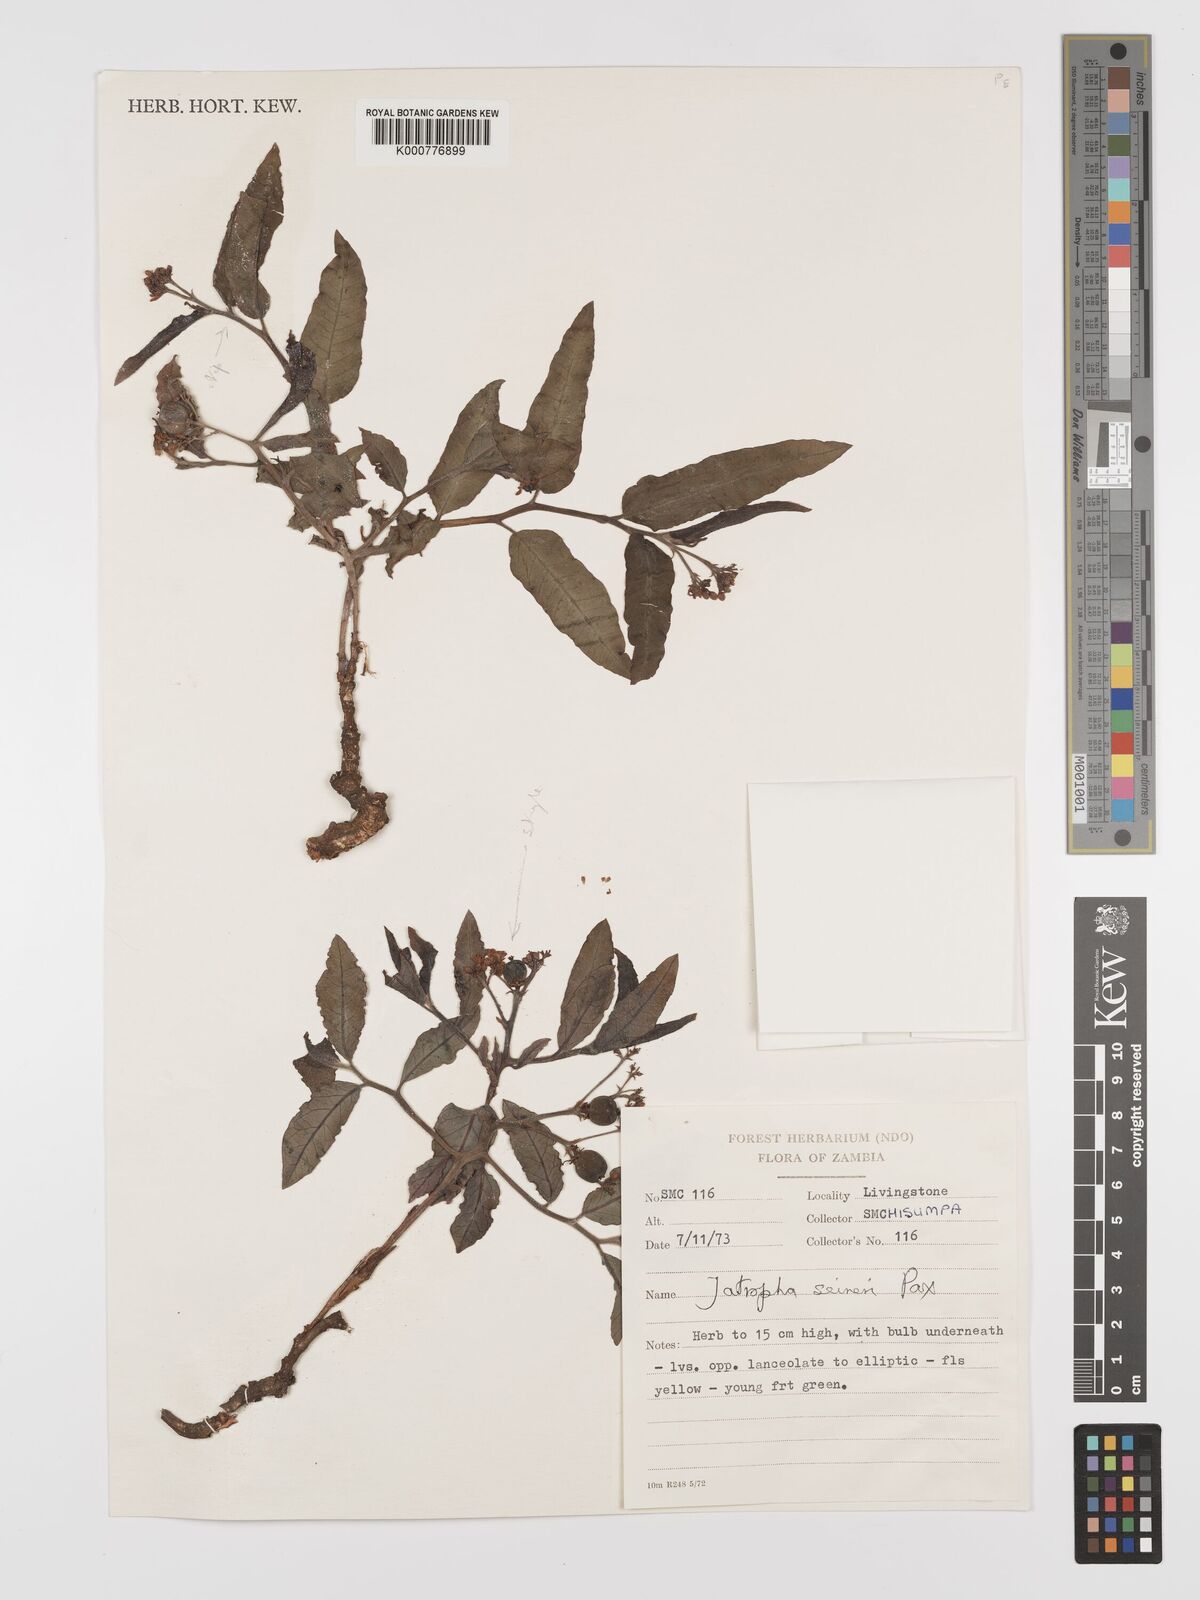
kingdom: Plantae
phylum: Tracheophyta
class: Magnoliopsida
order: Malpighiales
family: Euphorbiaceae
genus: Jatropha
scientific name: Jatropha seineri
